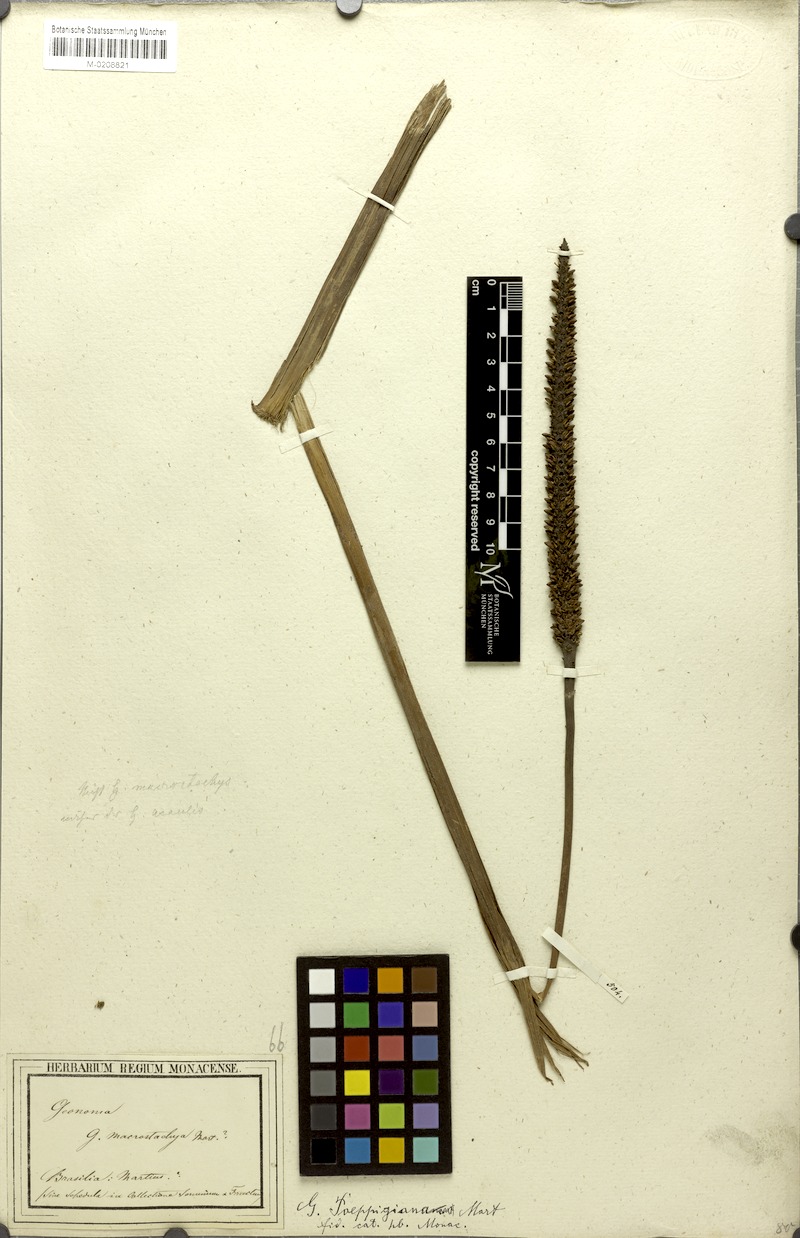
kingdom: Plantae
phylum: Tracheophyta
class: Liliopsida
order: Arecales
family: Arecaceae
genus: Geonoma
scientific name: Geonoma poeppigiana
